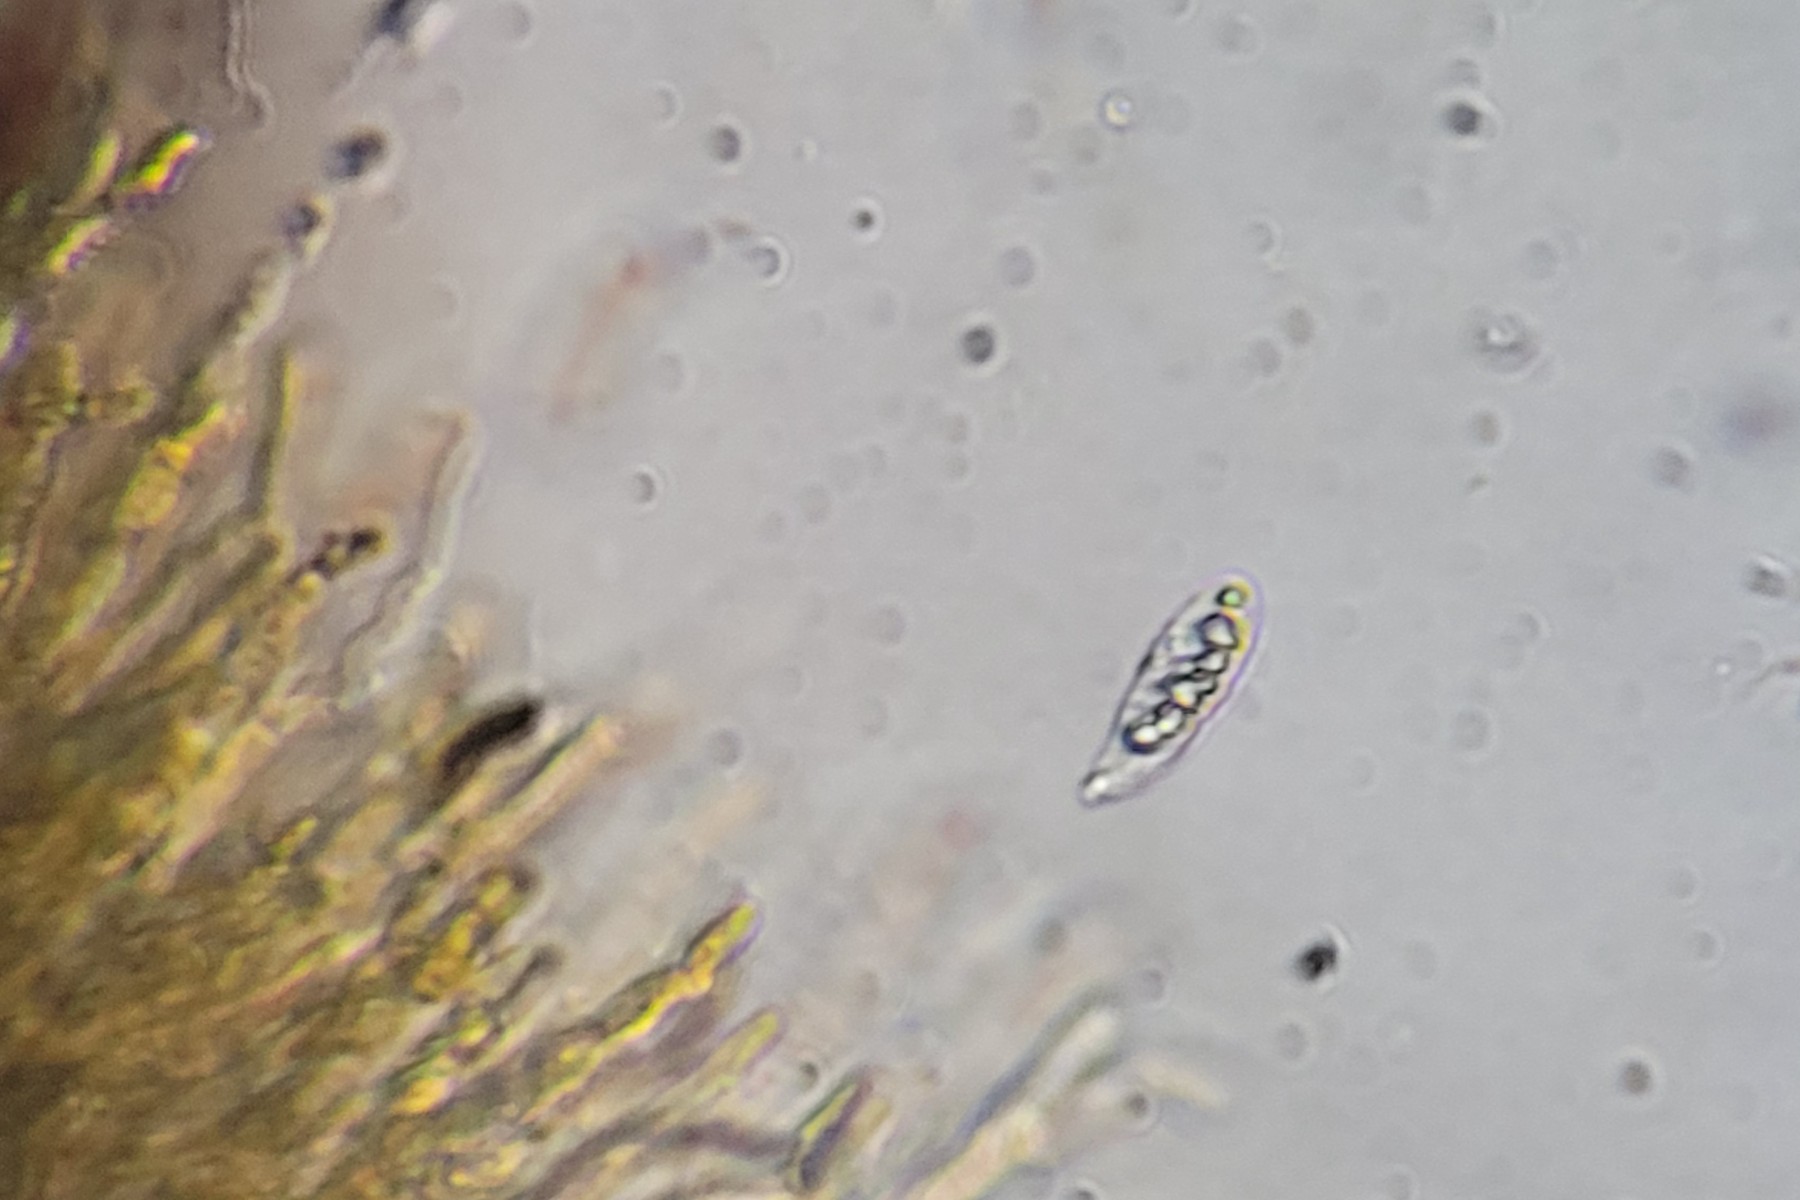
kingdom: Fungi
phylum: Basidiomycota
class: Dacrymycetes
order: Dacrymycetales
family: Dacrymycetaceae
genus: Dacrymyces
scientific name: Dacrymyces chrysospermus
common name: Orange jelly spot
